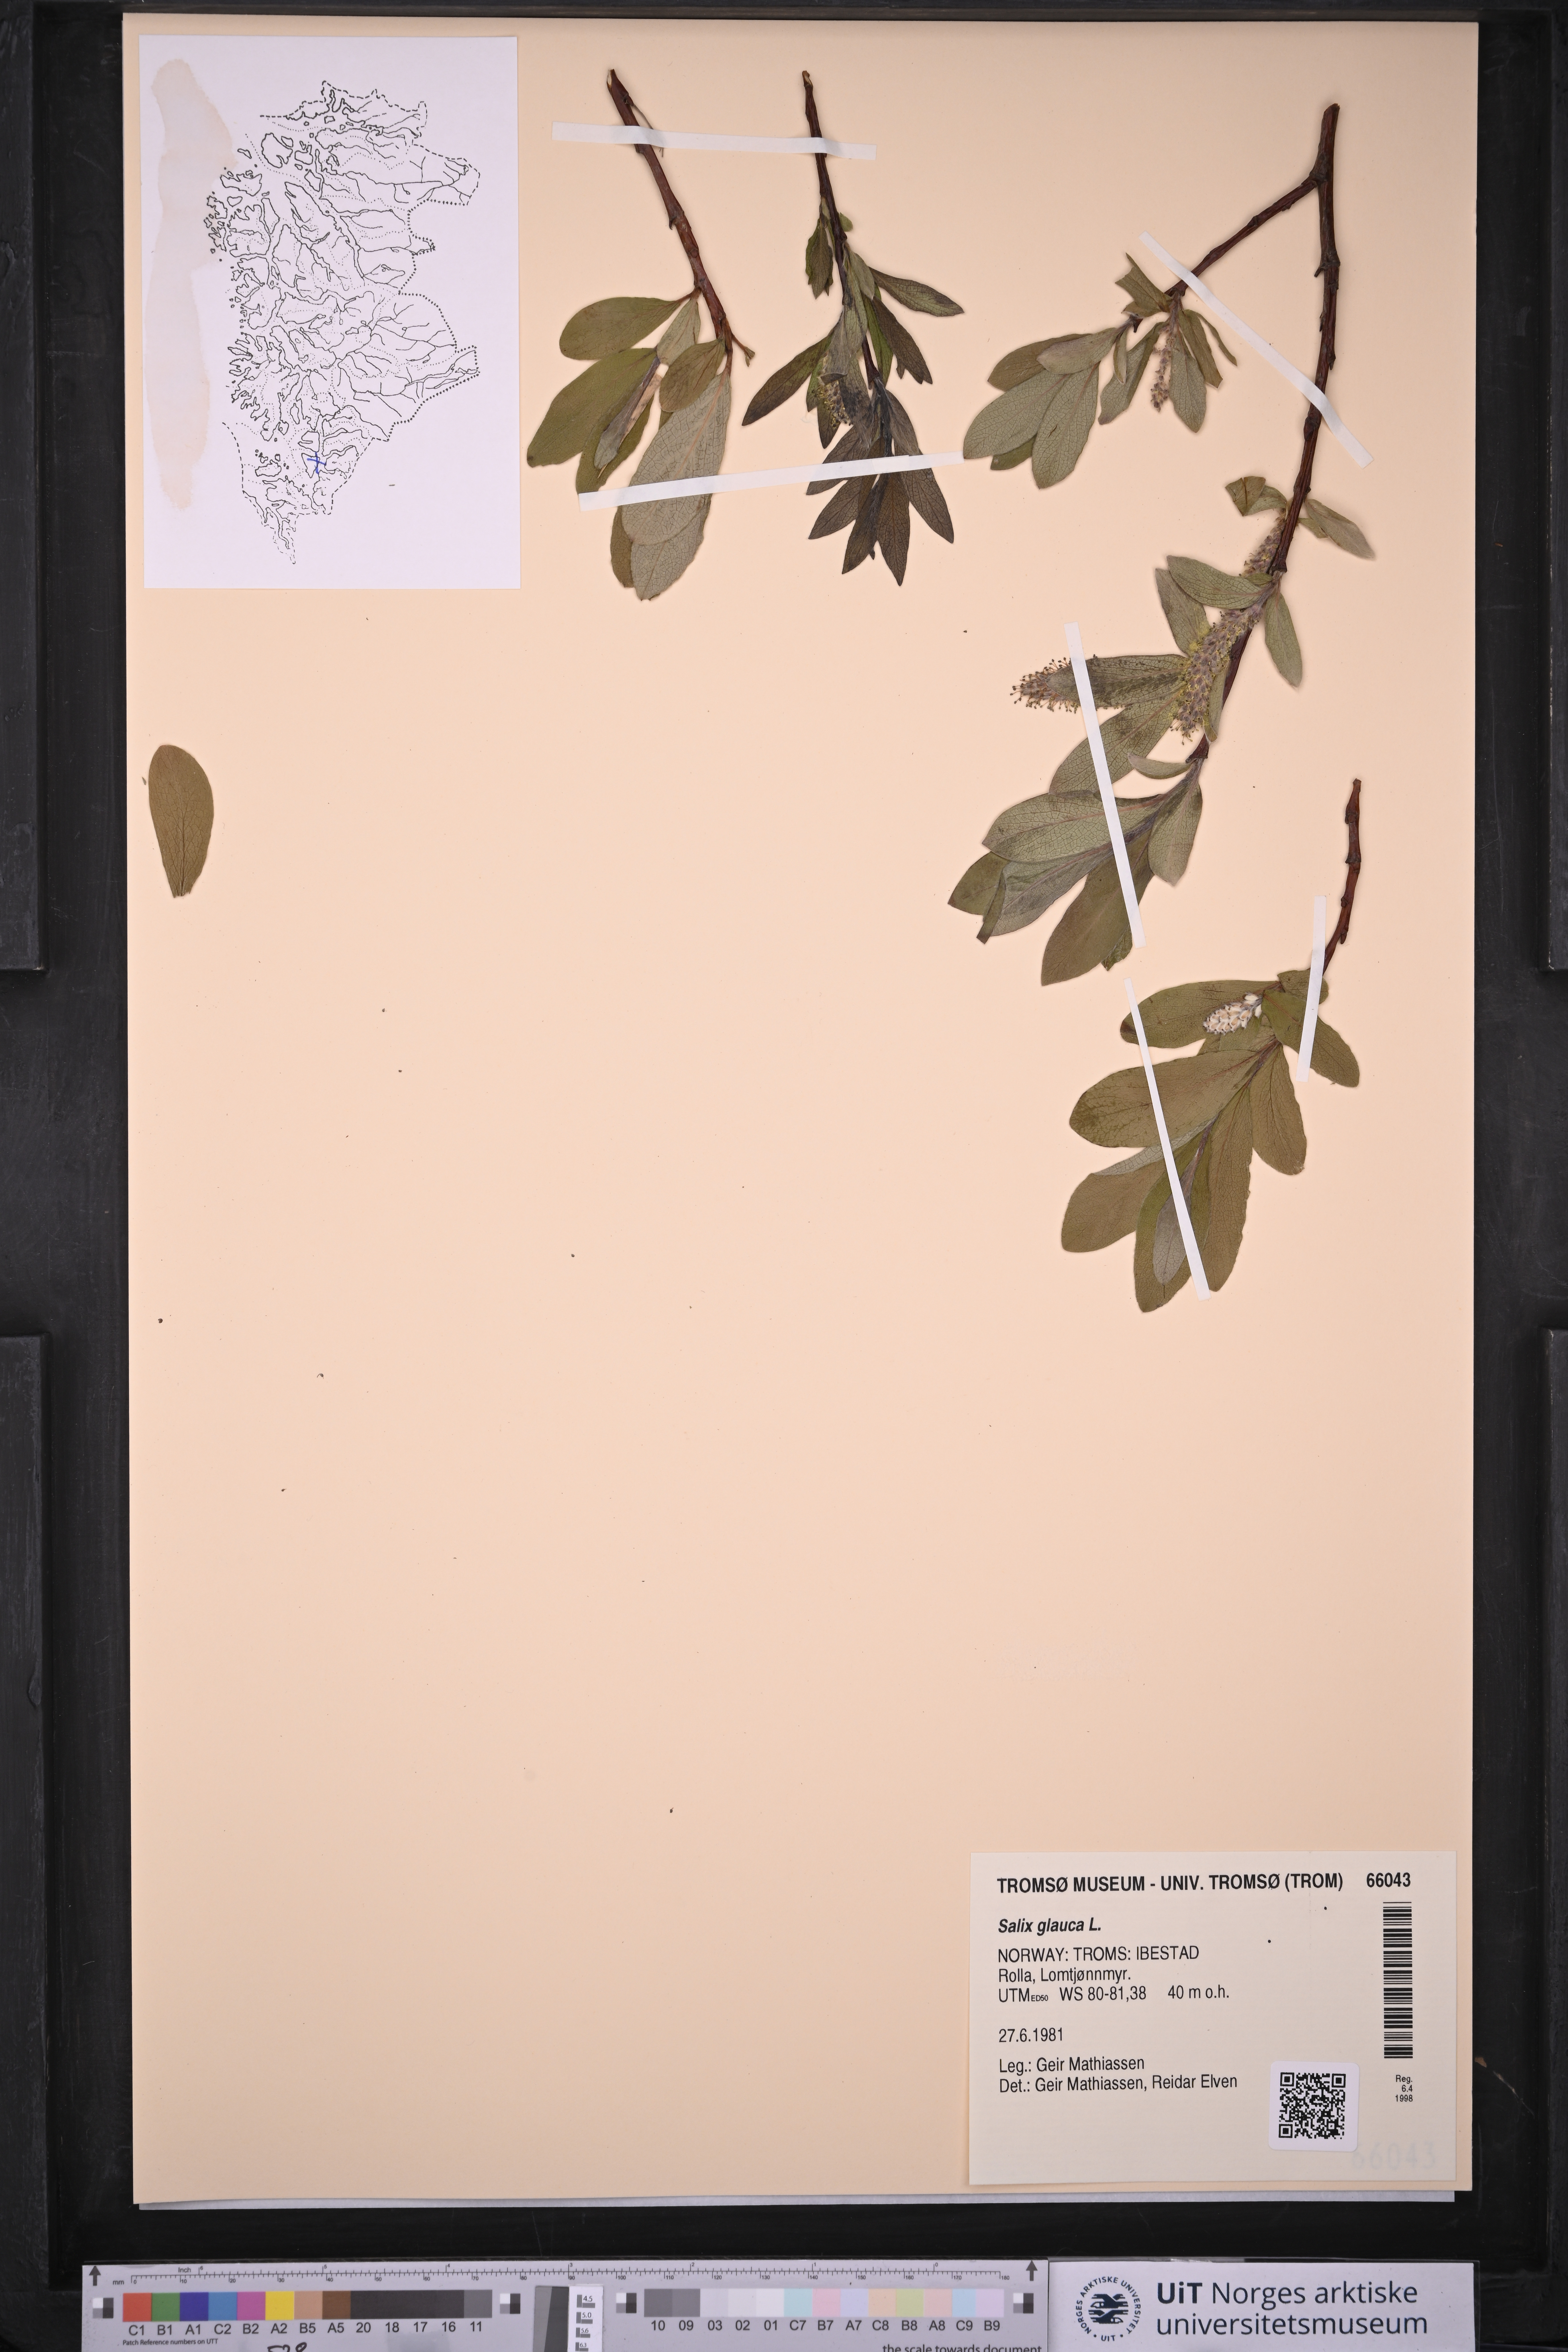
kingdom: Plantae
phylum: Tracheophyta
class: Magnoliopsida
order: Malpighiales
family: Salicaceae
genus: Salix
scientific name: Salix glauca
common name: Glaucous willow
